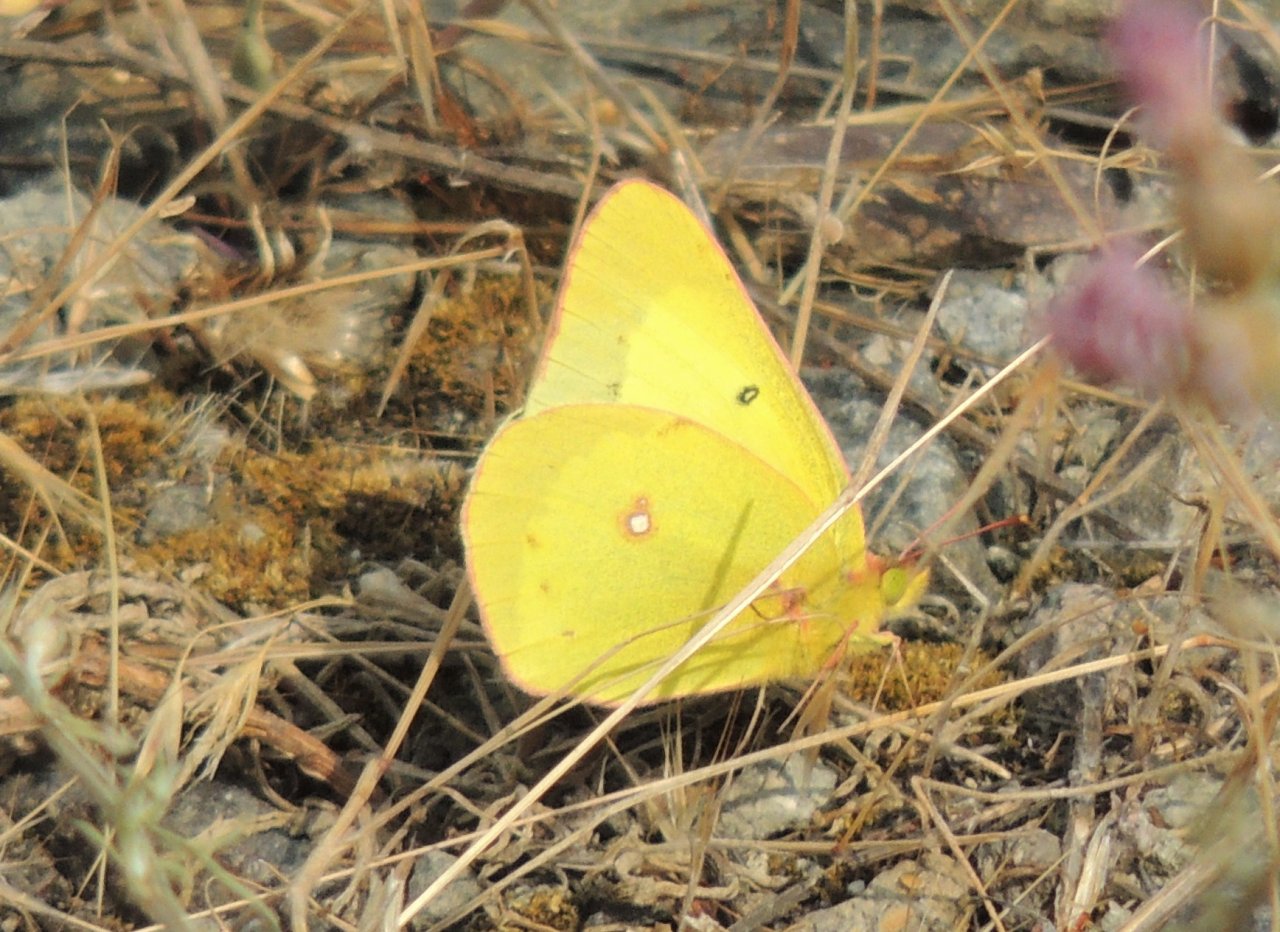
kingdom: Animalia
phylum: Arthropoda
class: Insecta
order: Lepidoptera
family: Pieridae
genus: Colias
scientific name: Colias eurytheme
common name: Orange Sulphur
